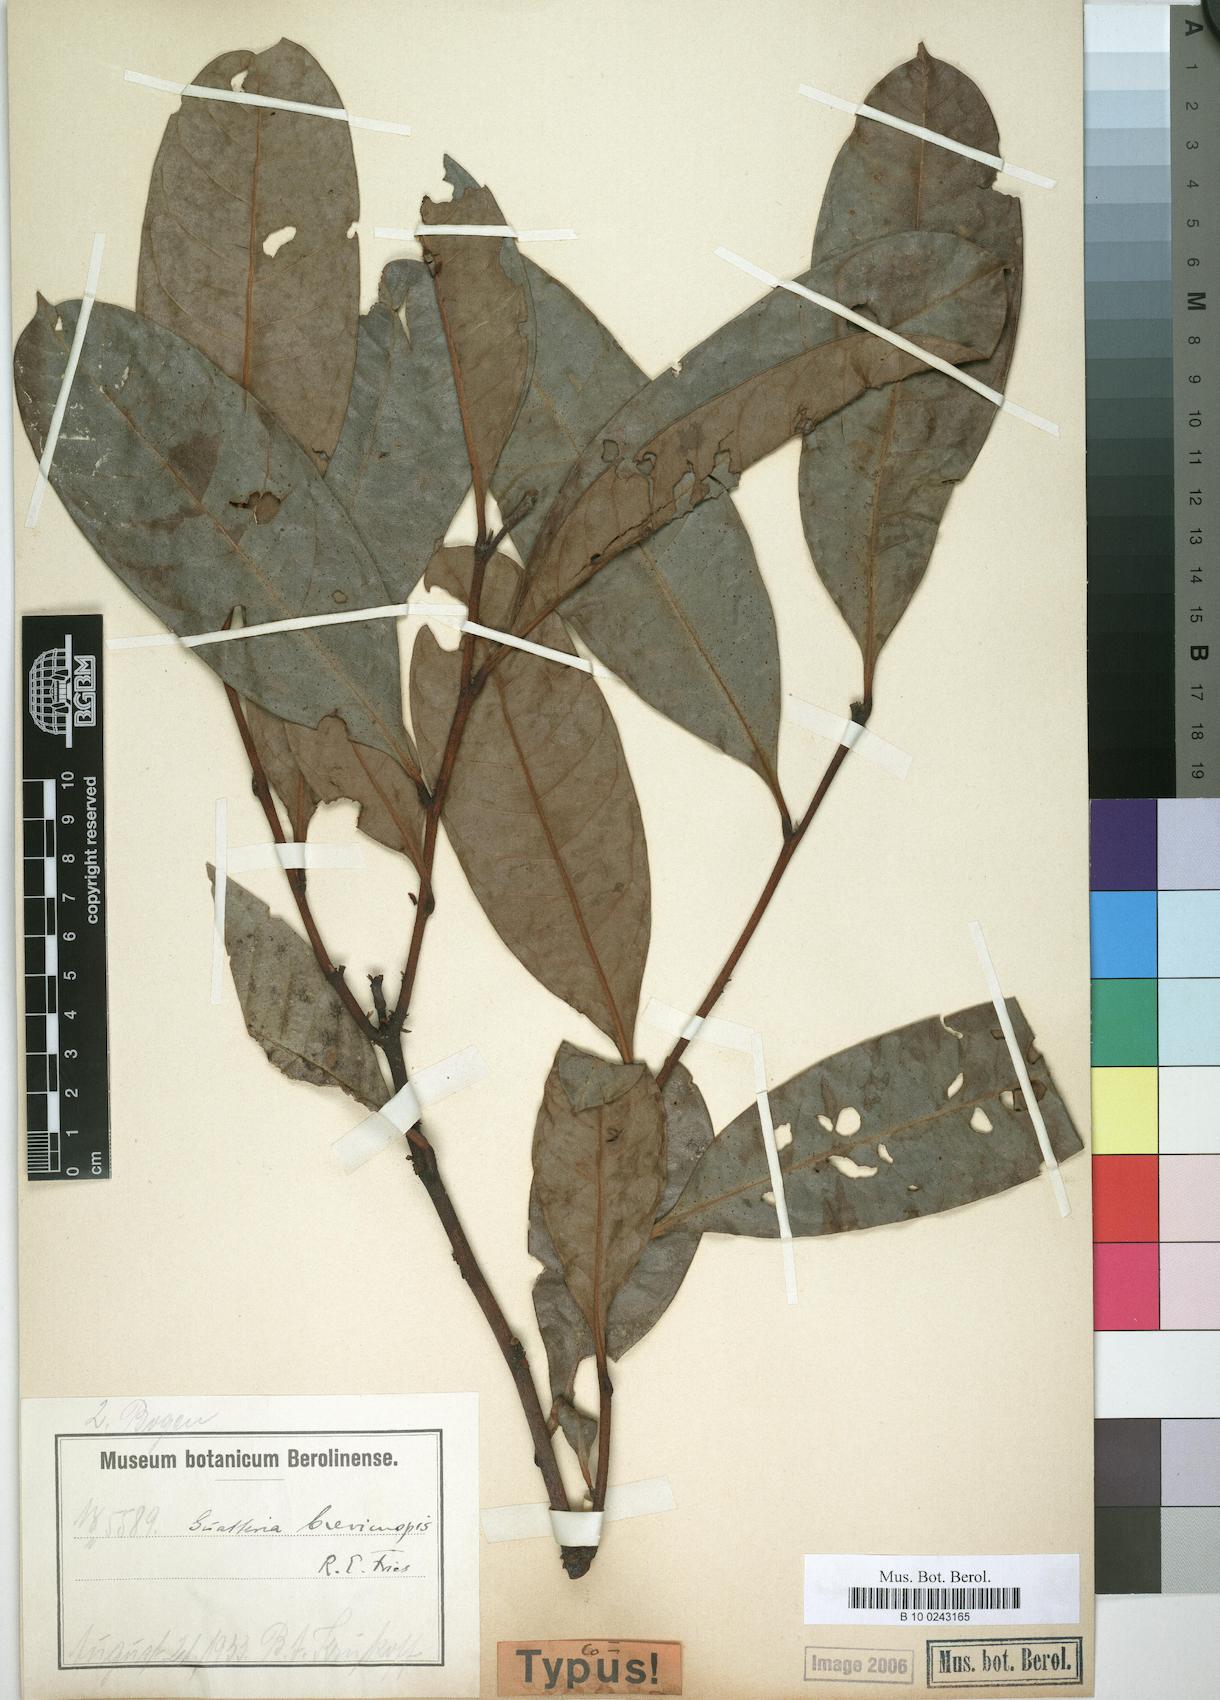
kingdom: Plantae
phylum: Tracheophyta
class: Magnoliopsida
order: Magnoliales
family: Annonaceae
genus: Guatteria
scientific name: Guatteria blepharophylla
